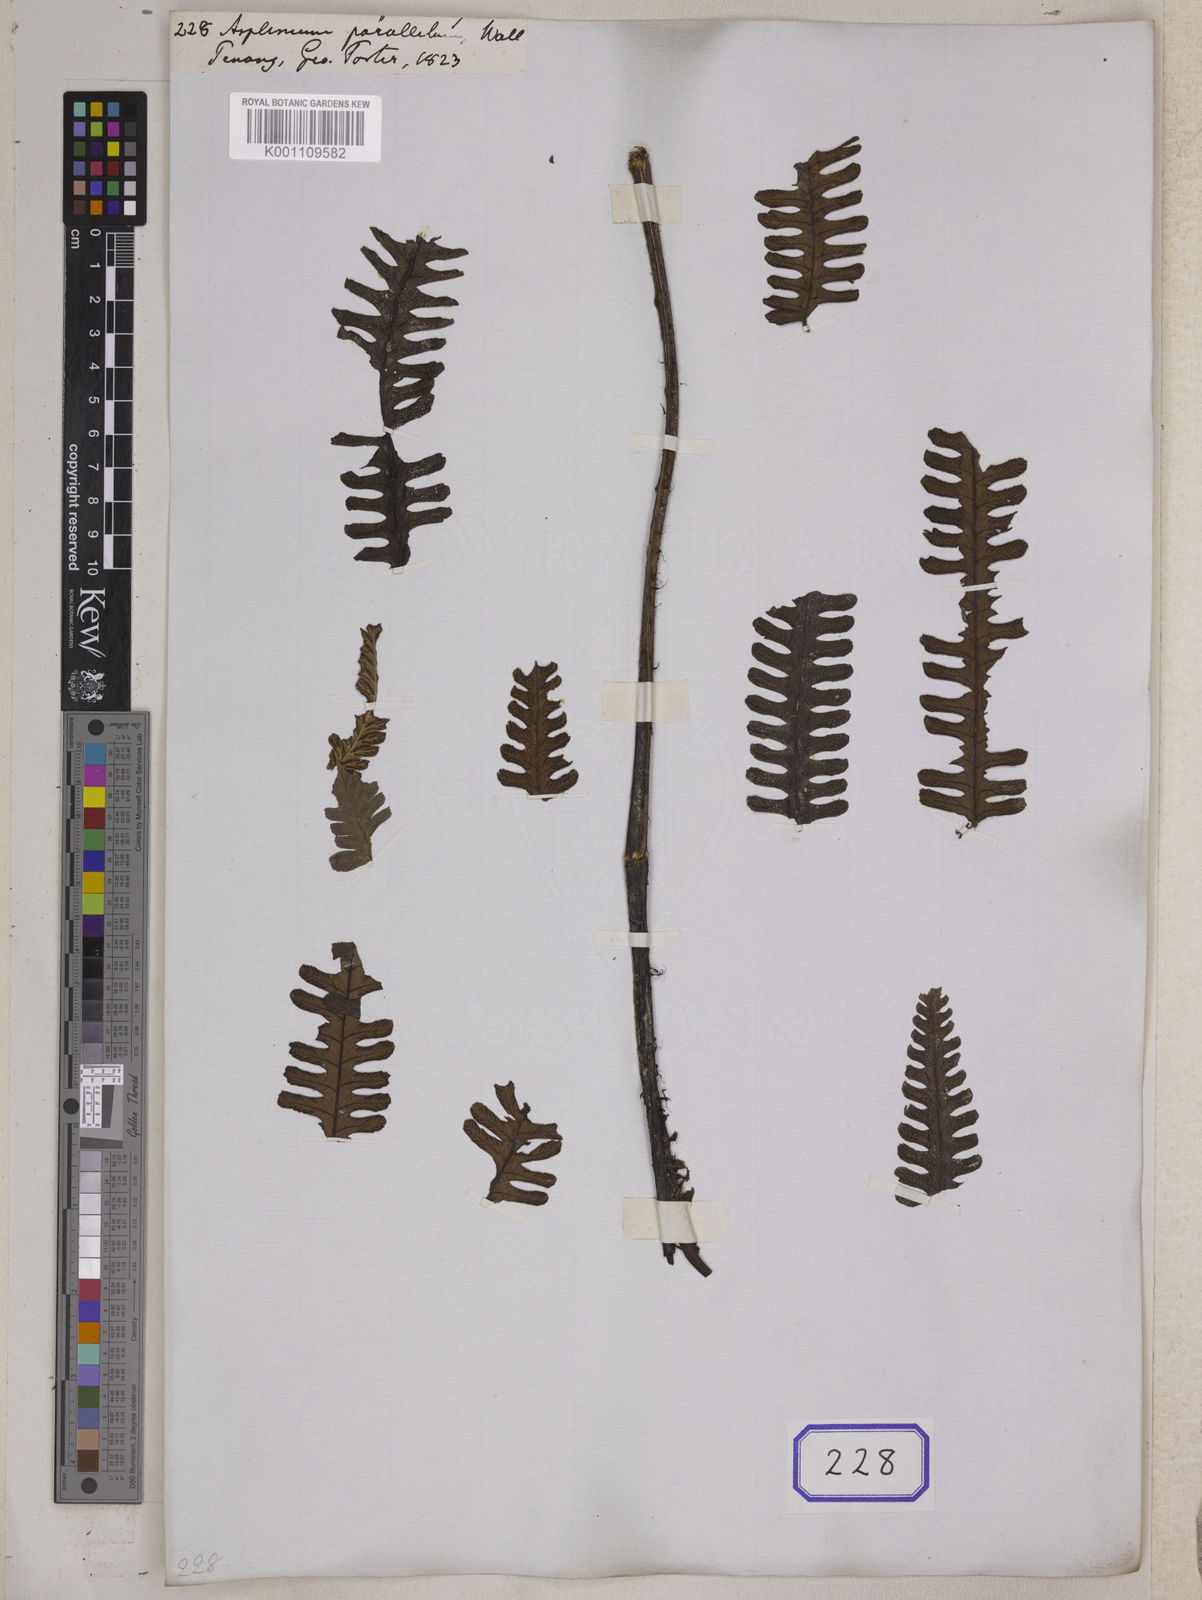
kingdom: Plantae
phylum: Tracheophyta
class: Polypodiopsida
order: Polypodiales
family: Athyriaceae
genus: Diplazium
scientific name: Diplazium sorzogonense
